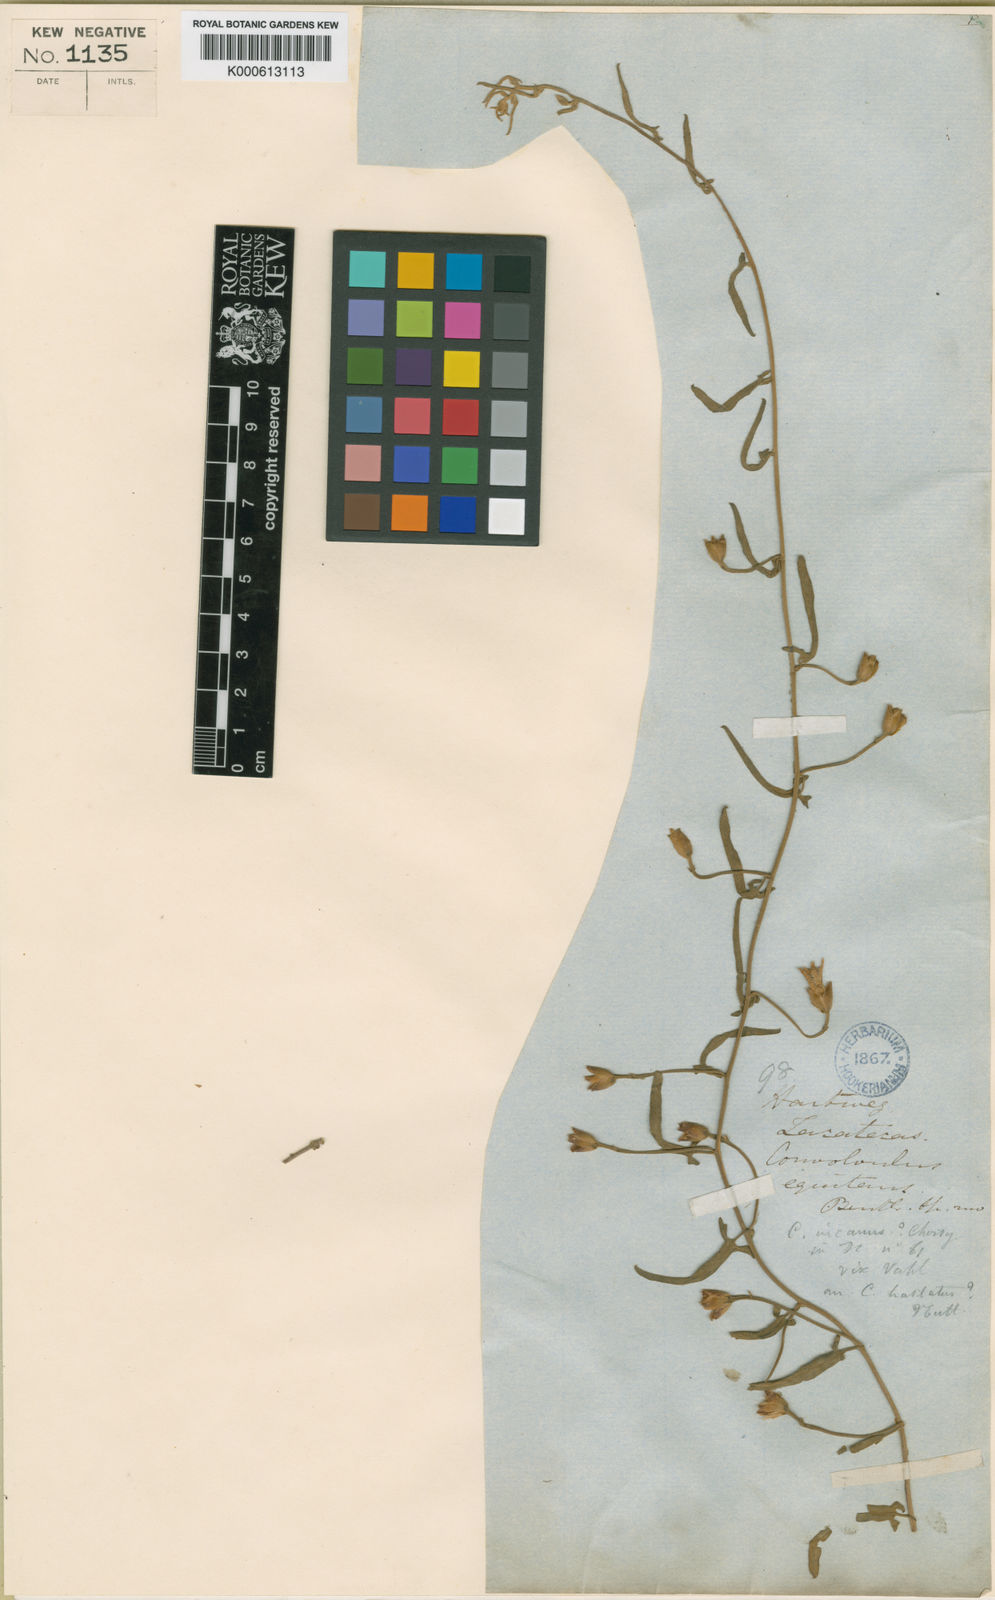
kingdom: Plantae
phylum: Tracheophyta
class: Magnoliopsida
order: Solanales
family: Convolvulaceae
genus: Convolvulus
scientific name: Convolvulus hermanniae
